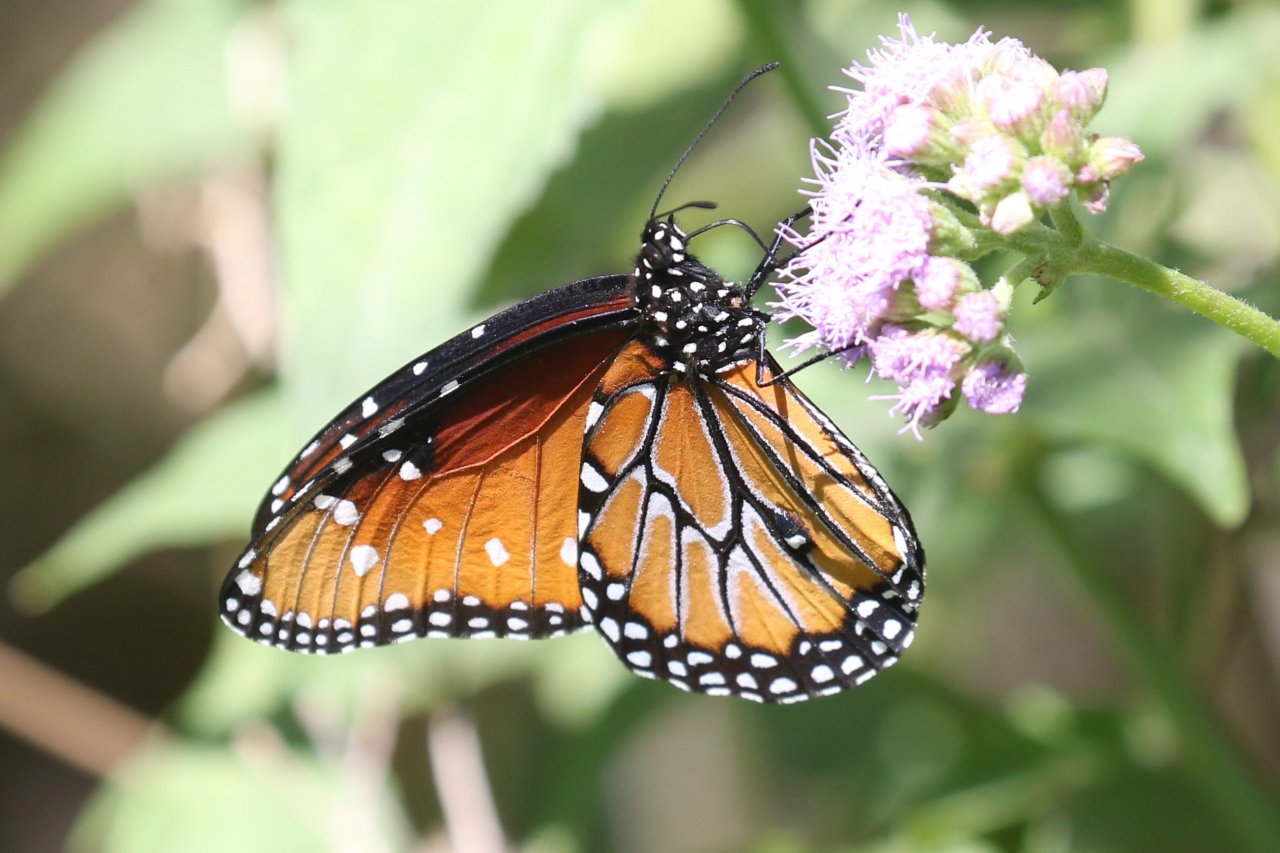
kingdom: Animalia
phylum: Arthropoda
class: Insecta
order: Lepidoptera
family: Nymphalidae
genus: Danaus
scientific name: Danaus gilippus
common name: Queen
